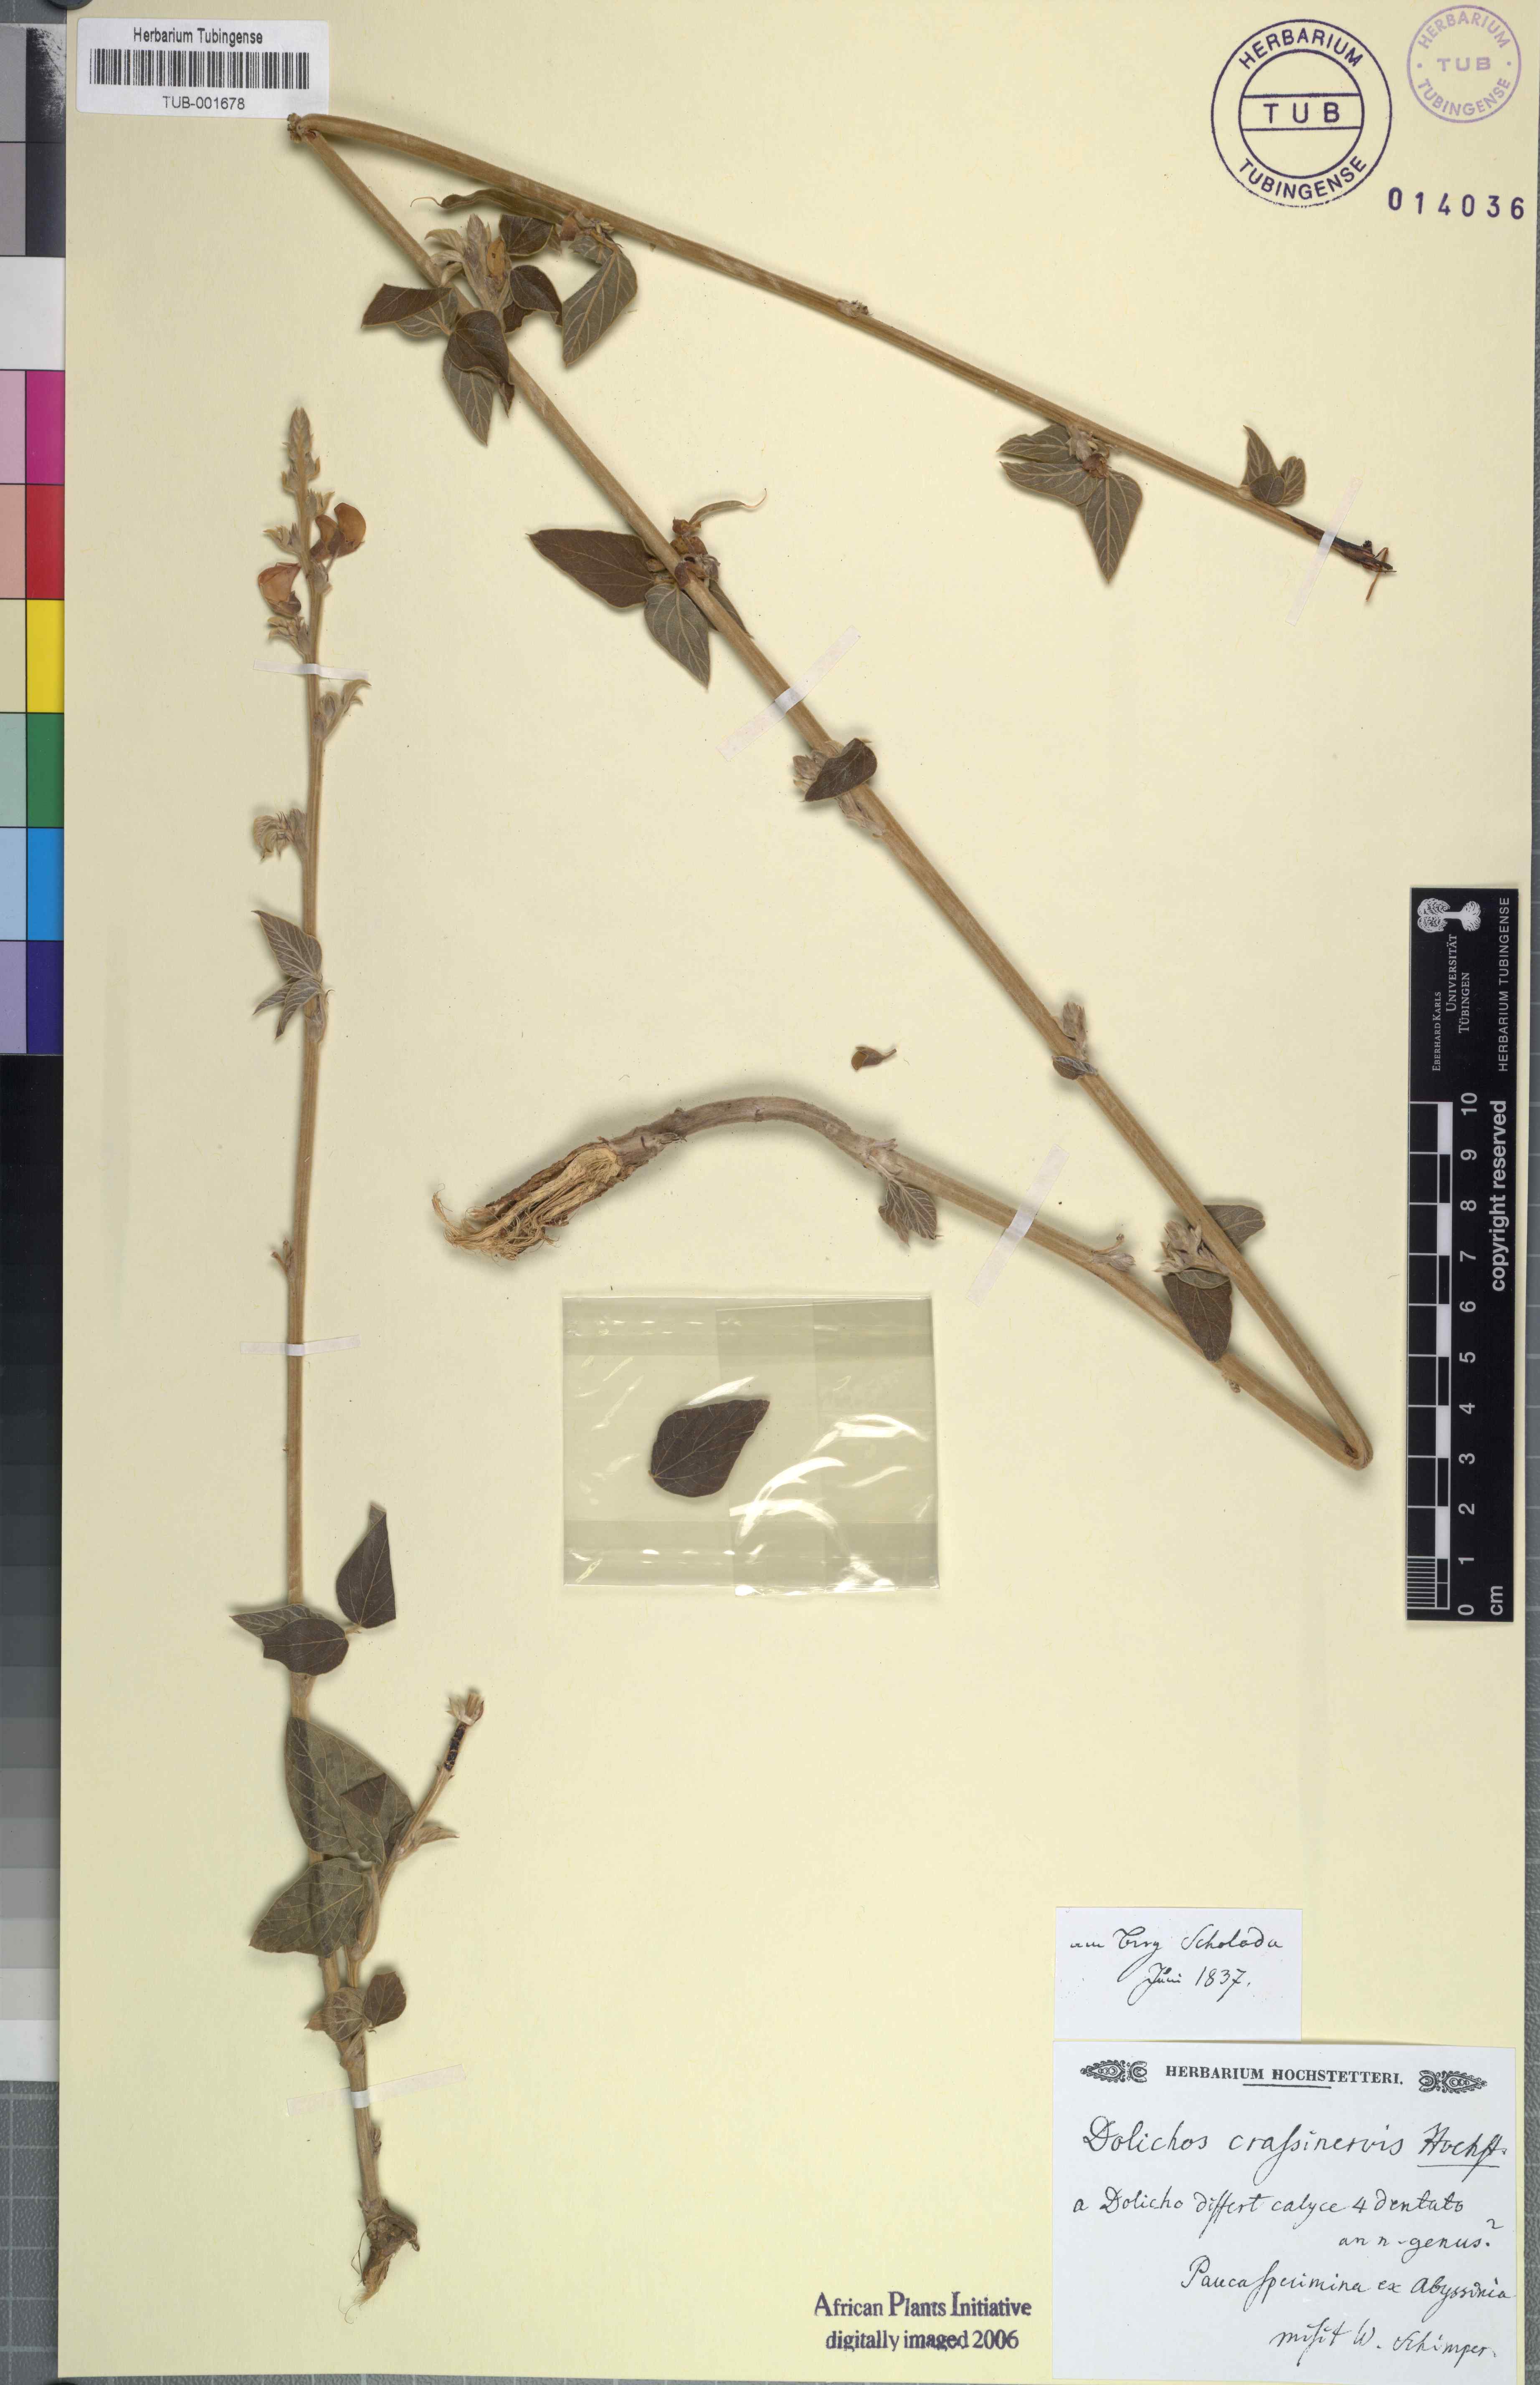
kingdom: Plantae
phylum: Tracheophyta
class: Magnoliopsida
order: Fabales
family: Fabaceae
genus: Dolichos
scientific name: Dolichos
